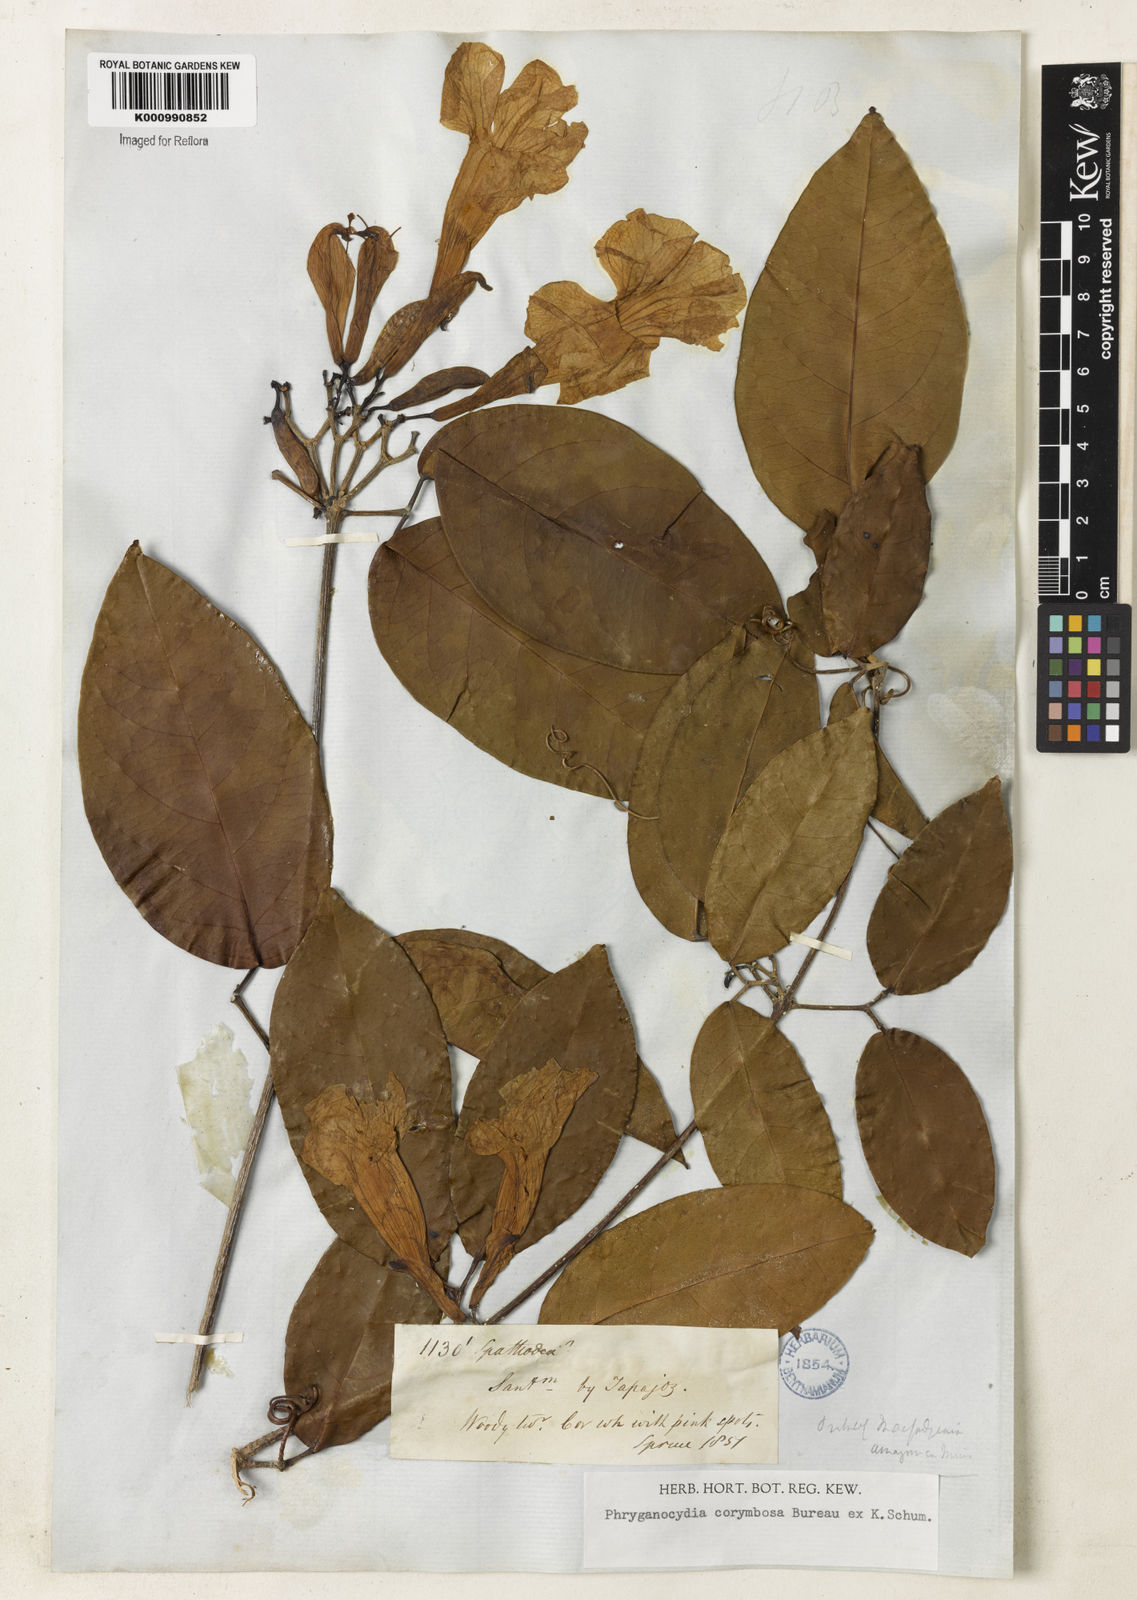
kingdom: Plantae
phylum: Tracheophyta
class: Magnoliopsida
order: Lamiales
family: Bignoniaceae
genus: Bignonia
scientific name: Bignonia corymbosa
